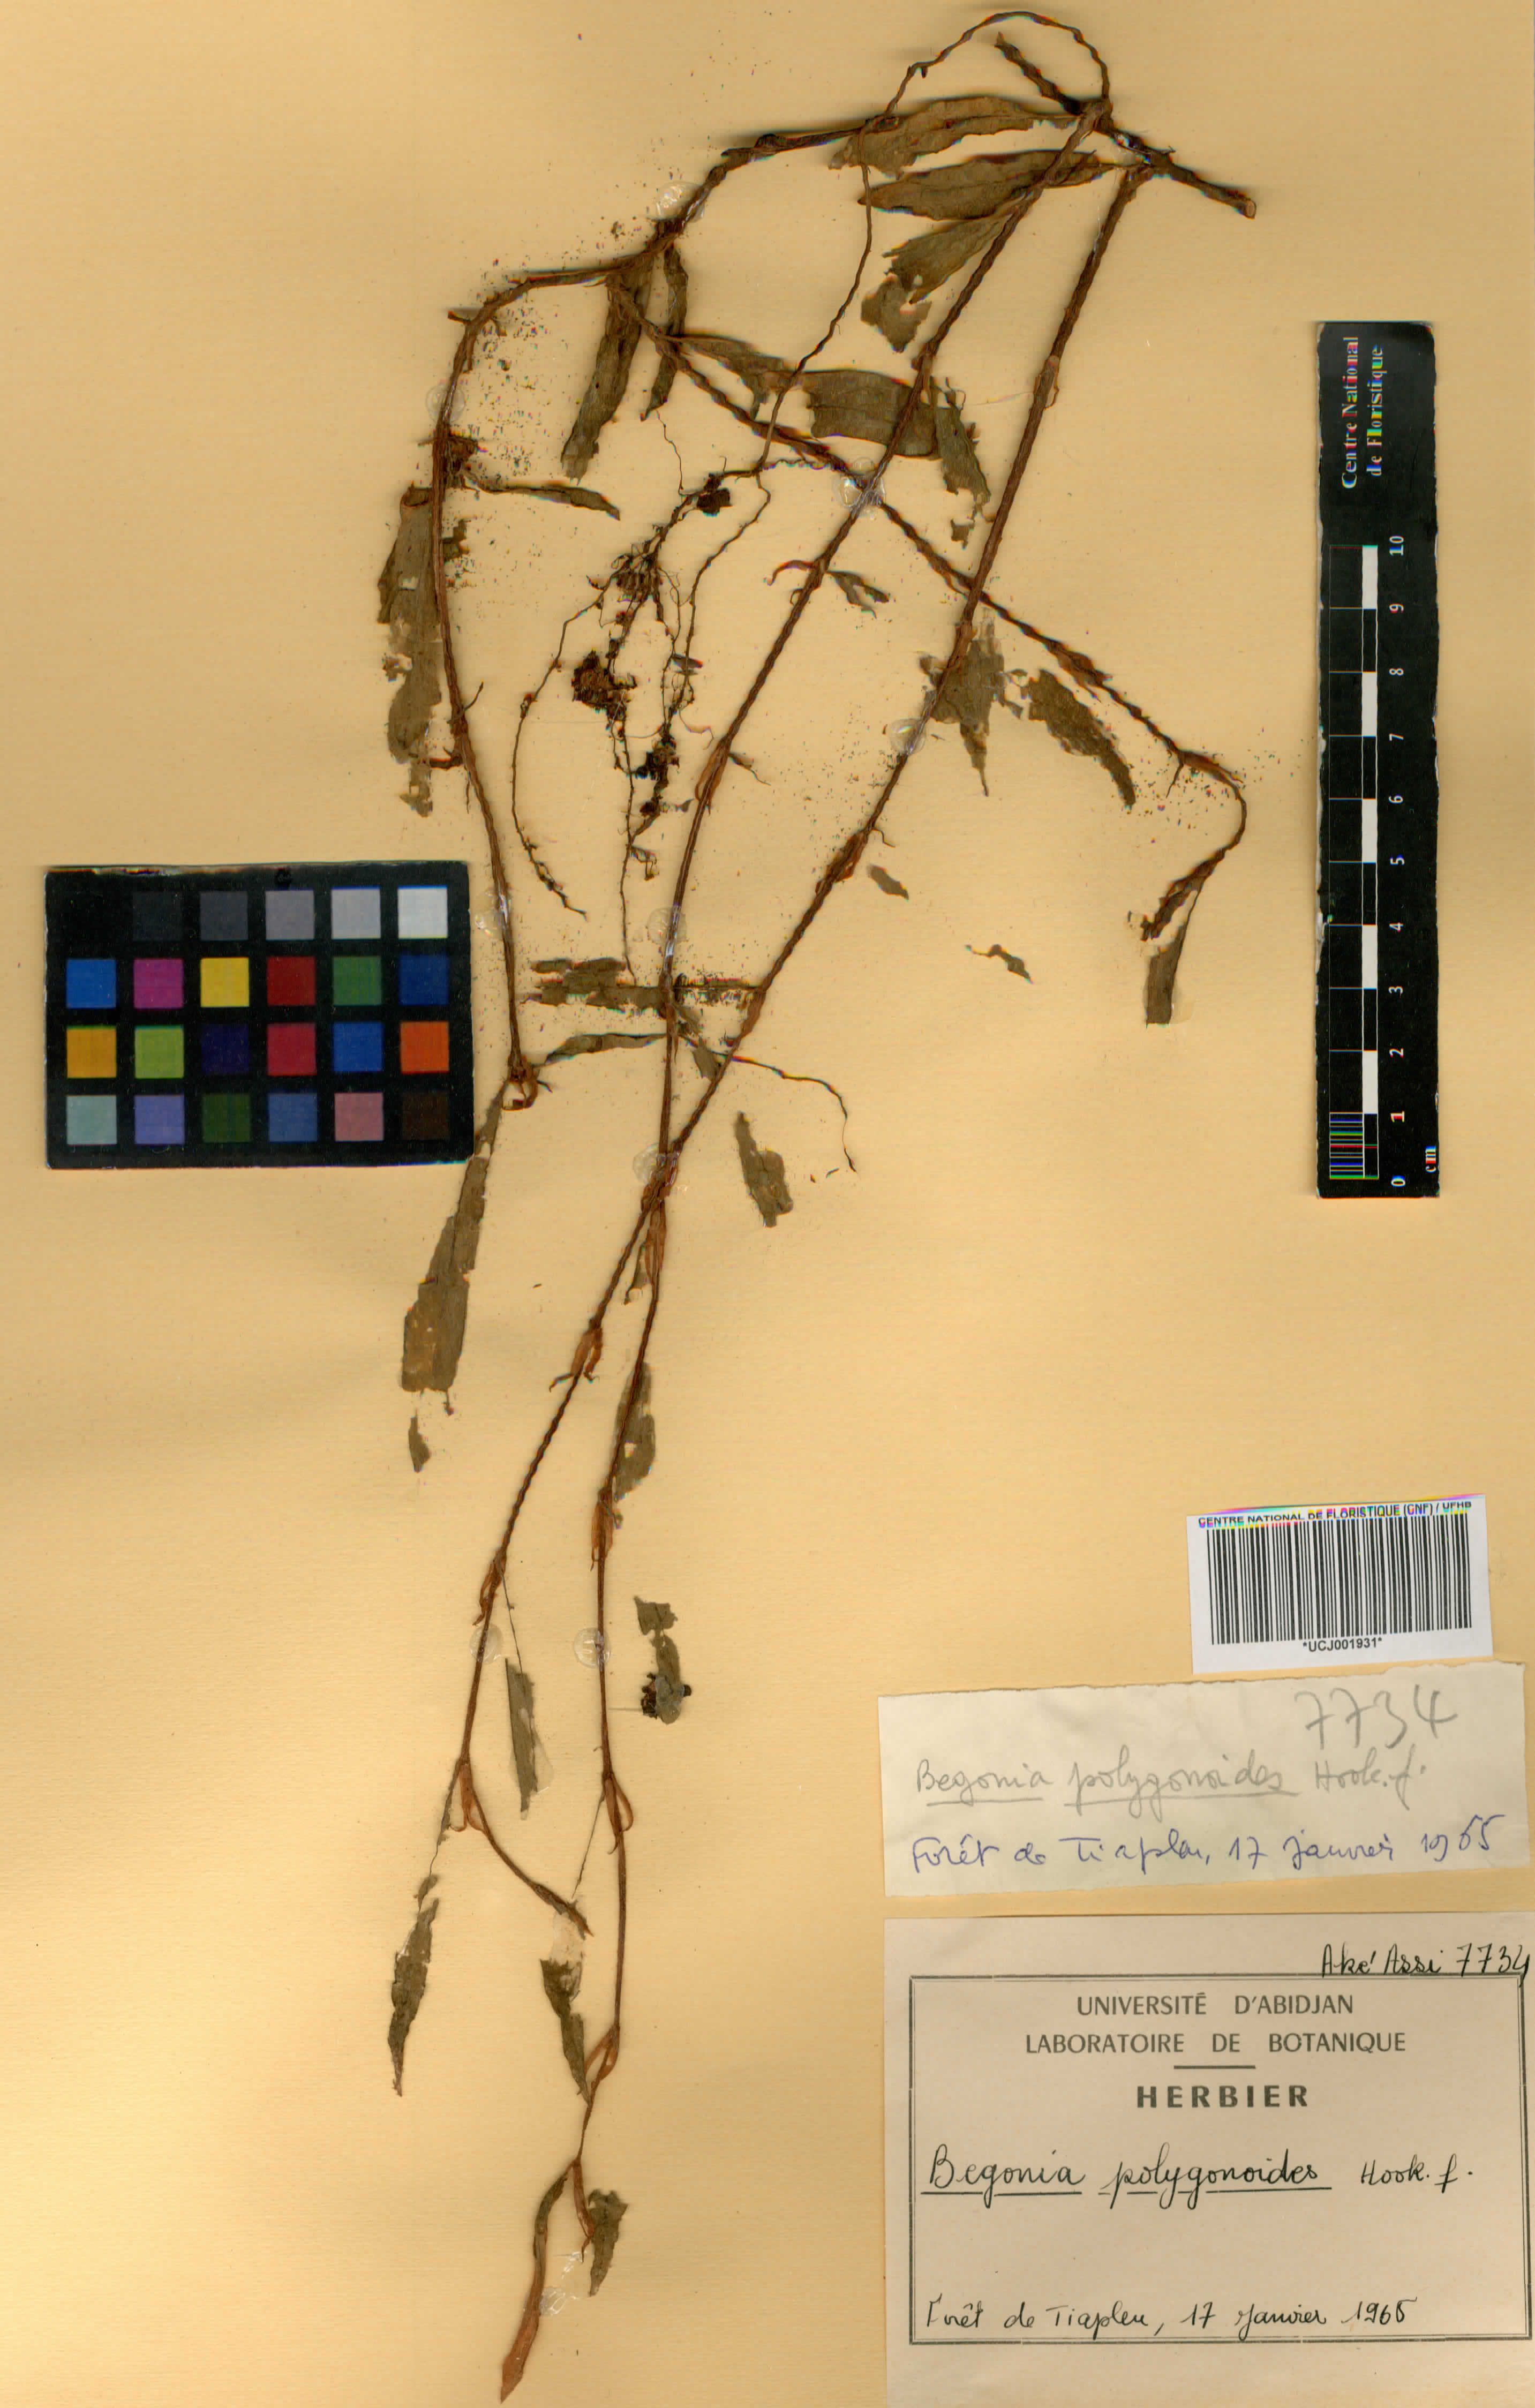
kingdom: Plantae
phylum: Tracheophyta
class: Magnoliopsida
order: Cucurbitales
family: Begoniaceae
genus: Begonia
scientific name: Begonia polygonoides
